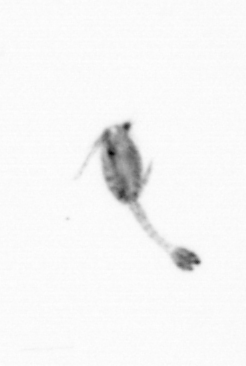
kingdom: Animalia
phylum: Arthropoda
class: Copepoda
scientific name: Copepoda
